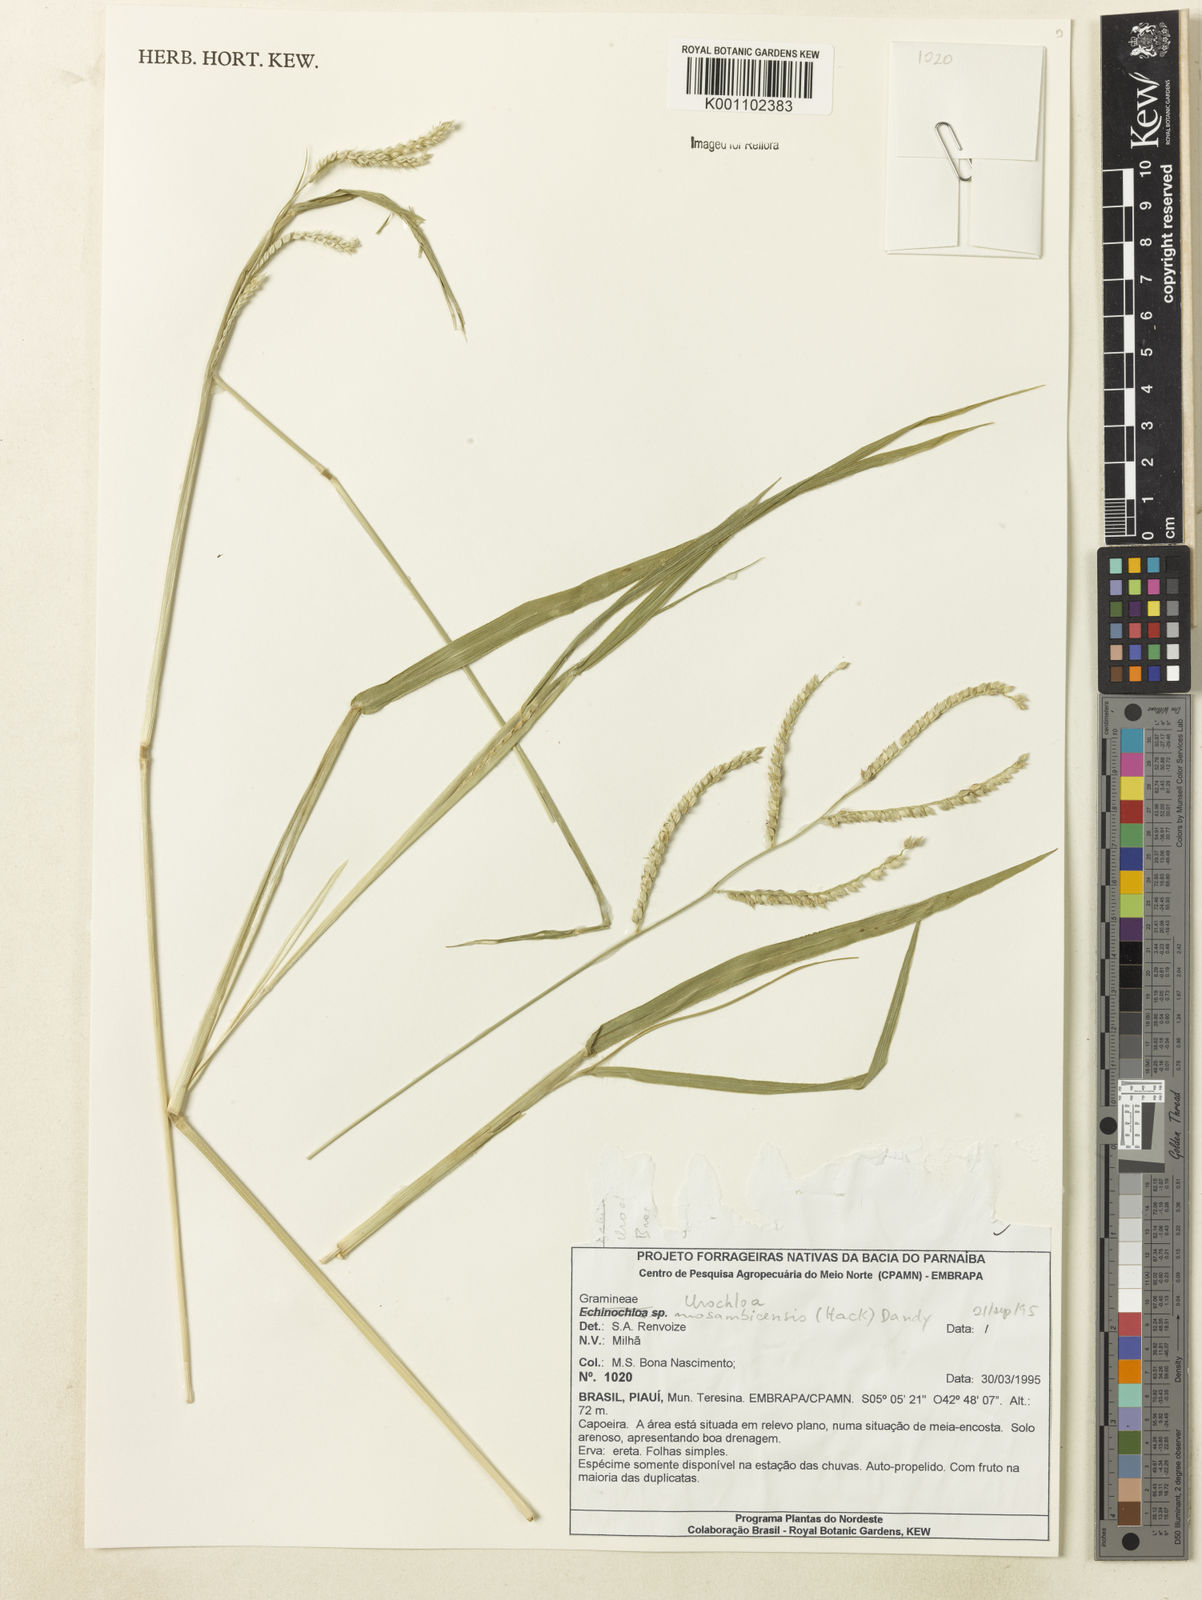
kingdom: Plantae
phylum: Tracheophyta
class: Liliopsida
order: Poales
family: Poaceae
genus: Urochloa
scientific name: Urochloa trichopus
